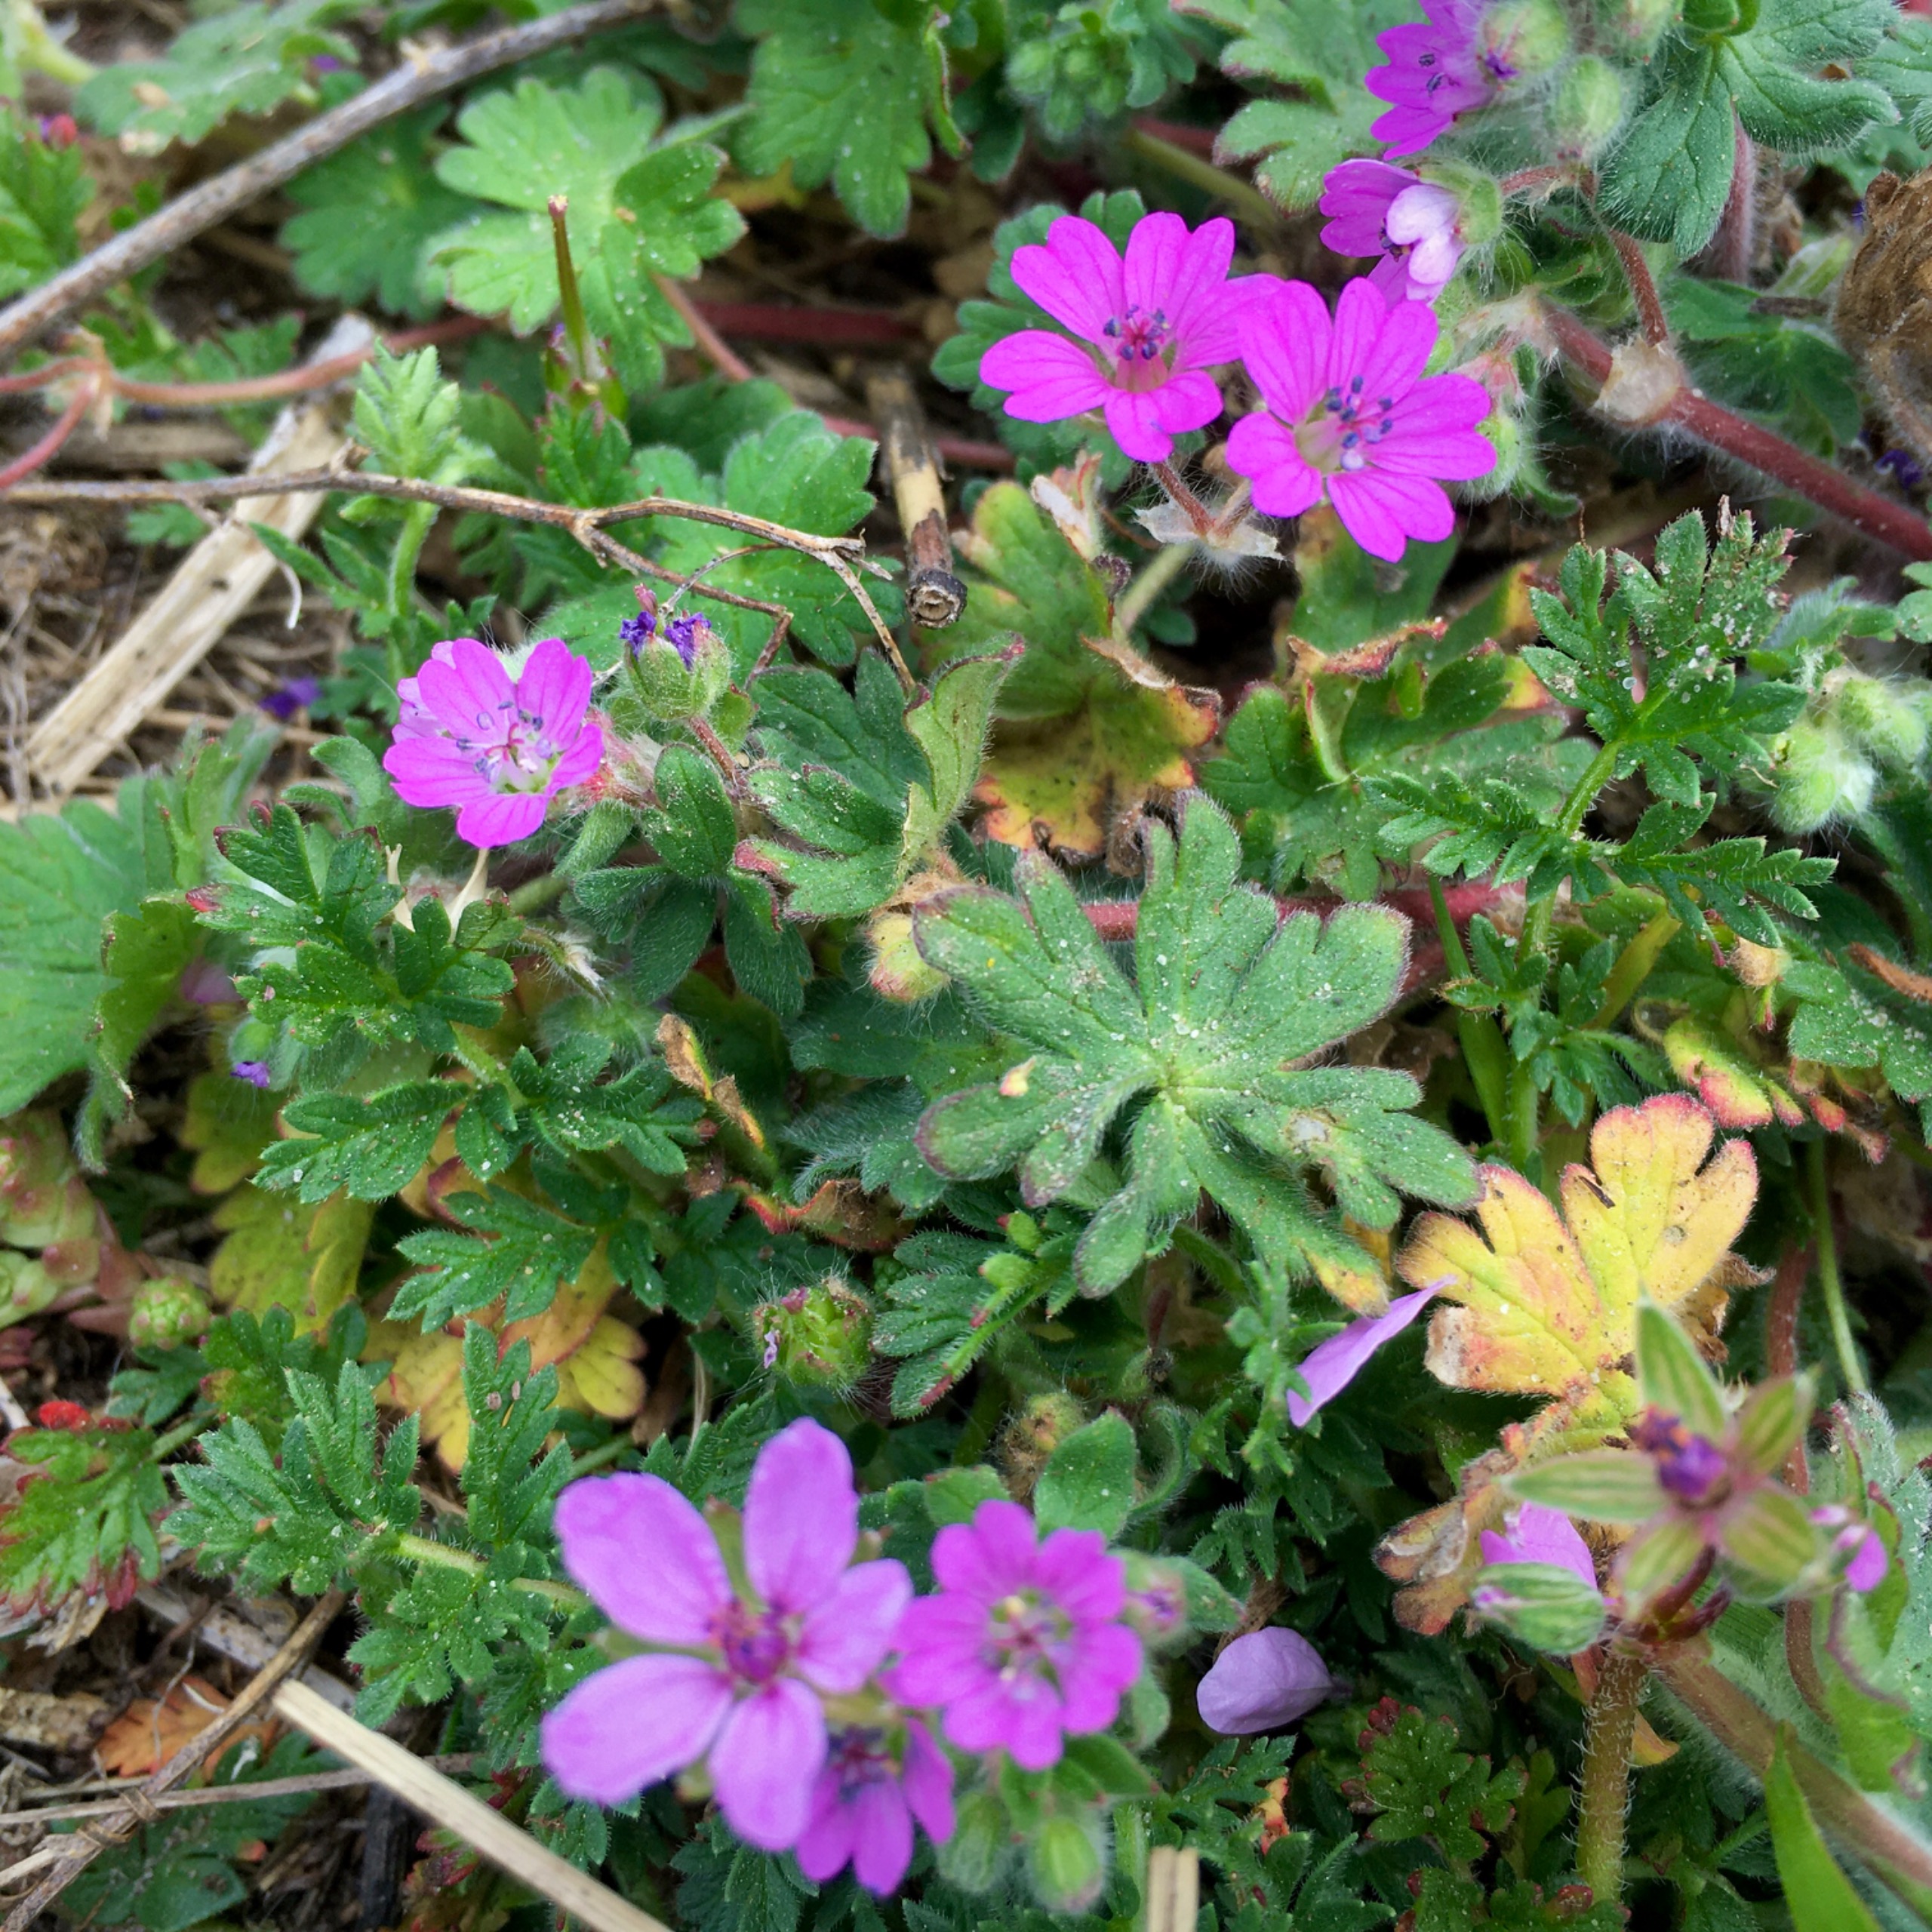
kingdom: Plantae
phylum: Tracheophyta
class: Magnoliopsida
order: Geraniales
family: Geraniaceae
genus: Geranium
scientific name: Geranium molle
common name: Blød storkenæb
